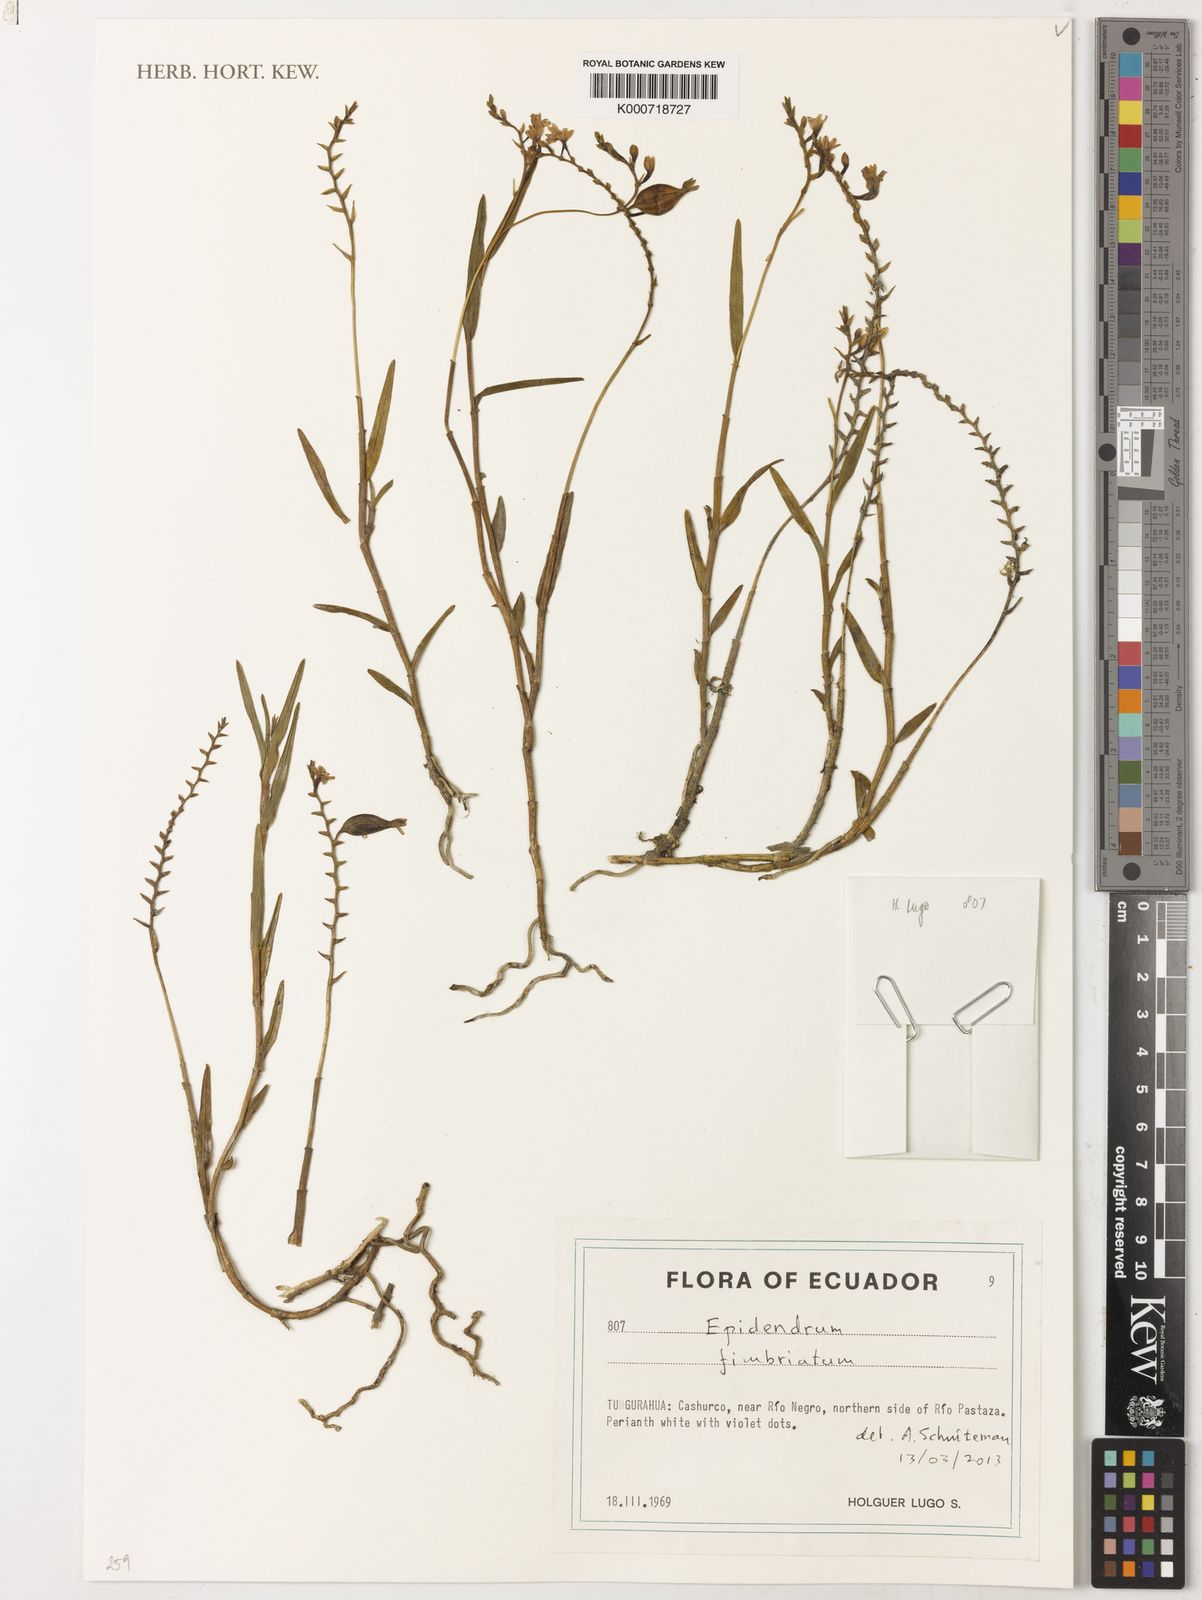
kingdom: Plantae
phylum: Tracheophyta
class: Liliopsida
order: Asparagales
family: Orchidaceae
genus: Epidendrum
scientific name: Epidendrum fimbriatum
